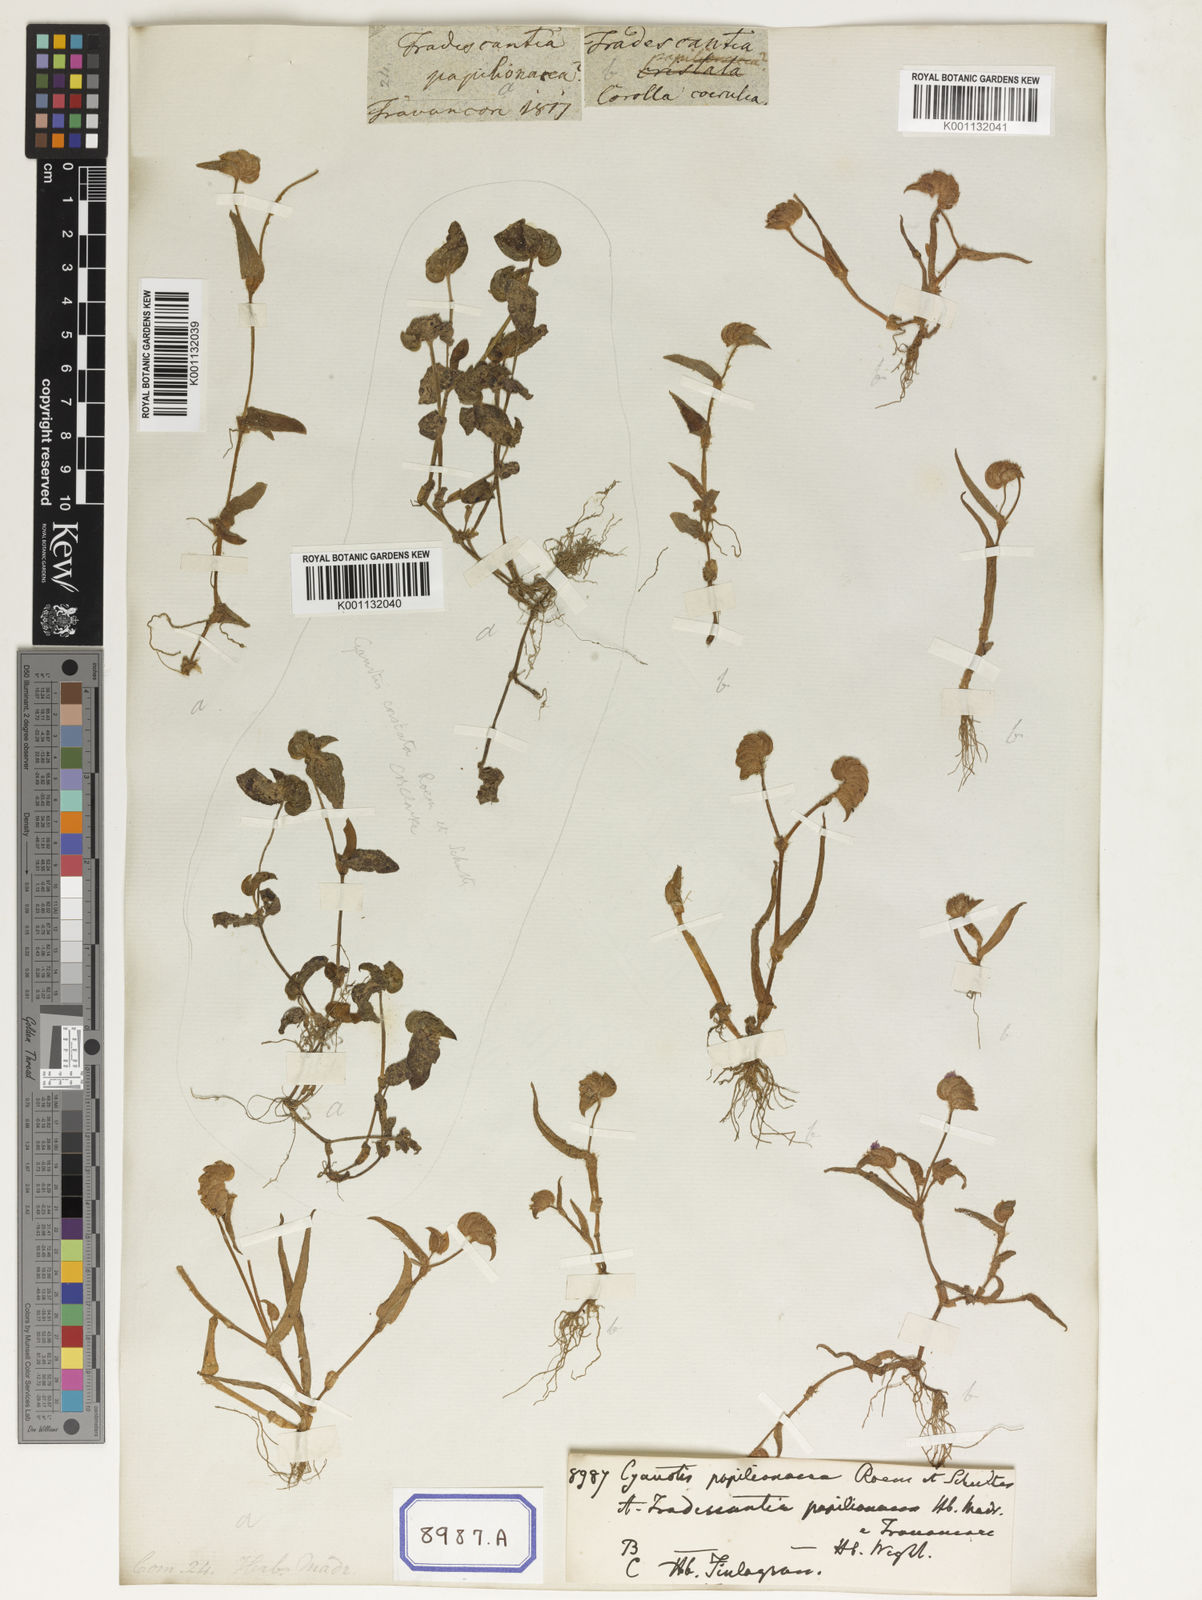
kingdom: Plantae
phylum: Tracheophyta
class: Liliopsida
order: Commelinales
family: Commelinaceae
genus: Cyanotis
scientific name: Cyanotis cristata
